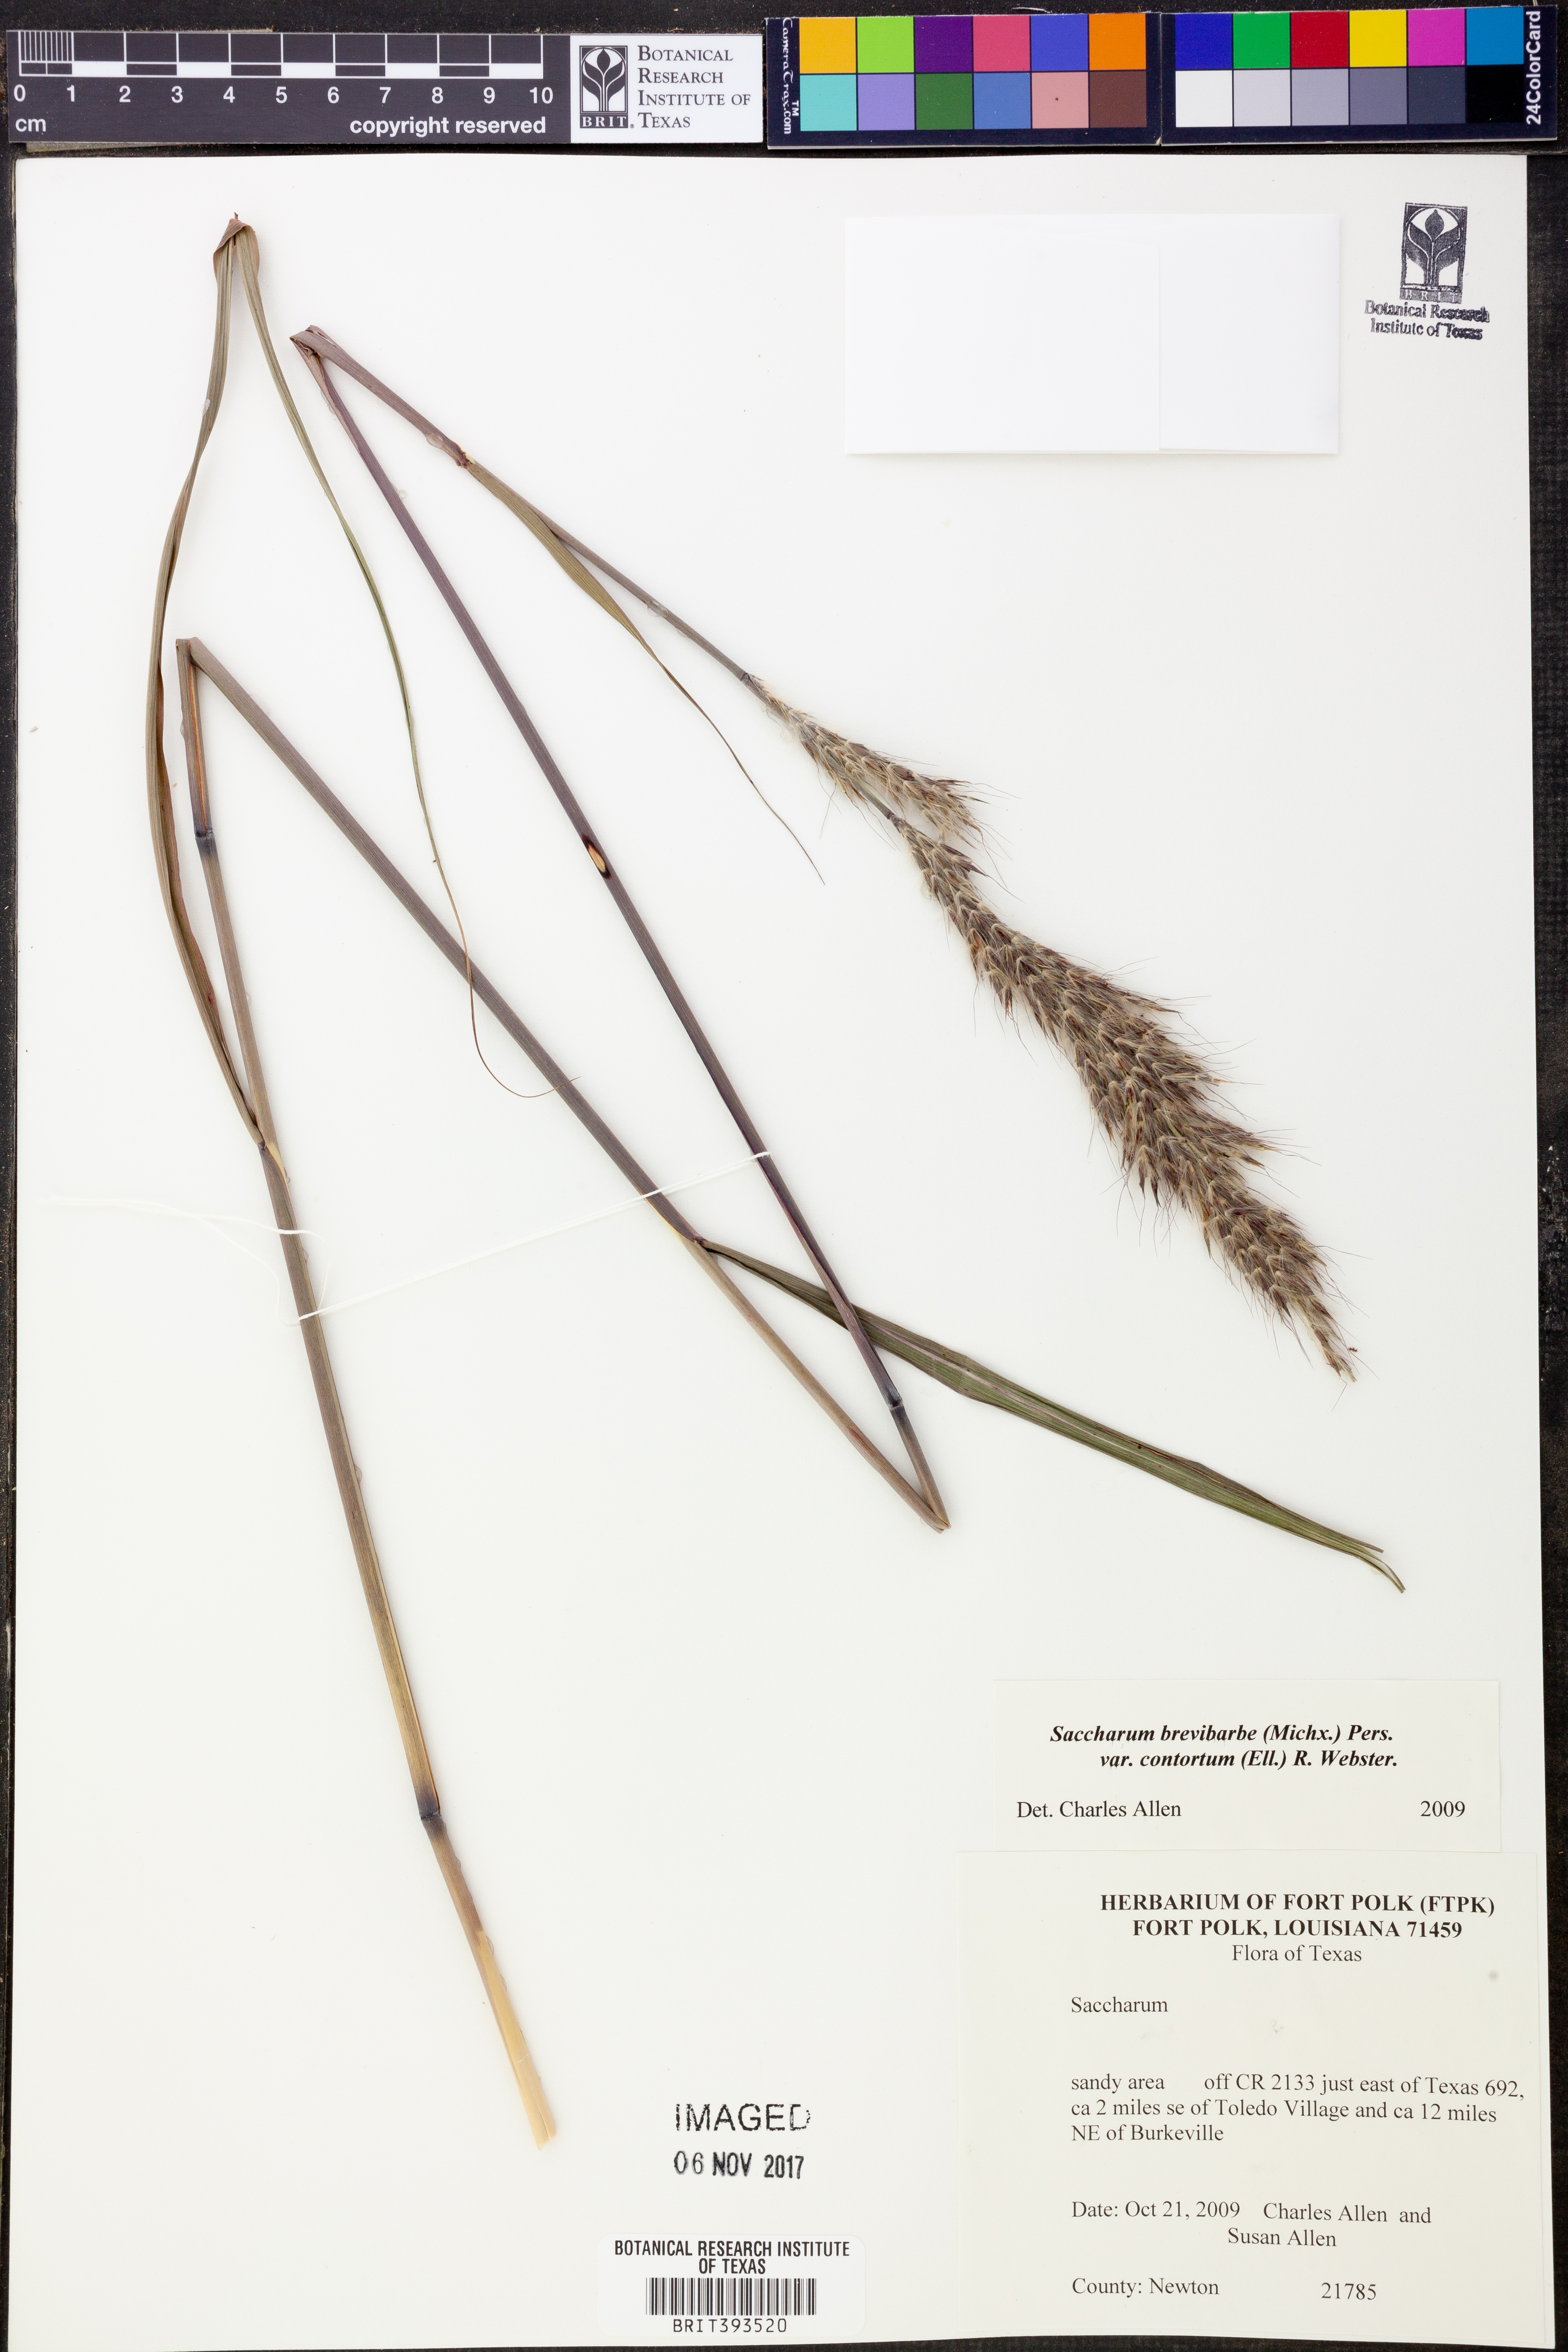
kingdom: Plantae
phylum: Tracheophyta
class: Liliopsida
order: Poales
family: Poaceae
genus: Erianthus
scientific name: Erianthus contortus
